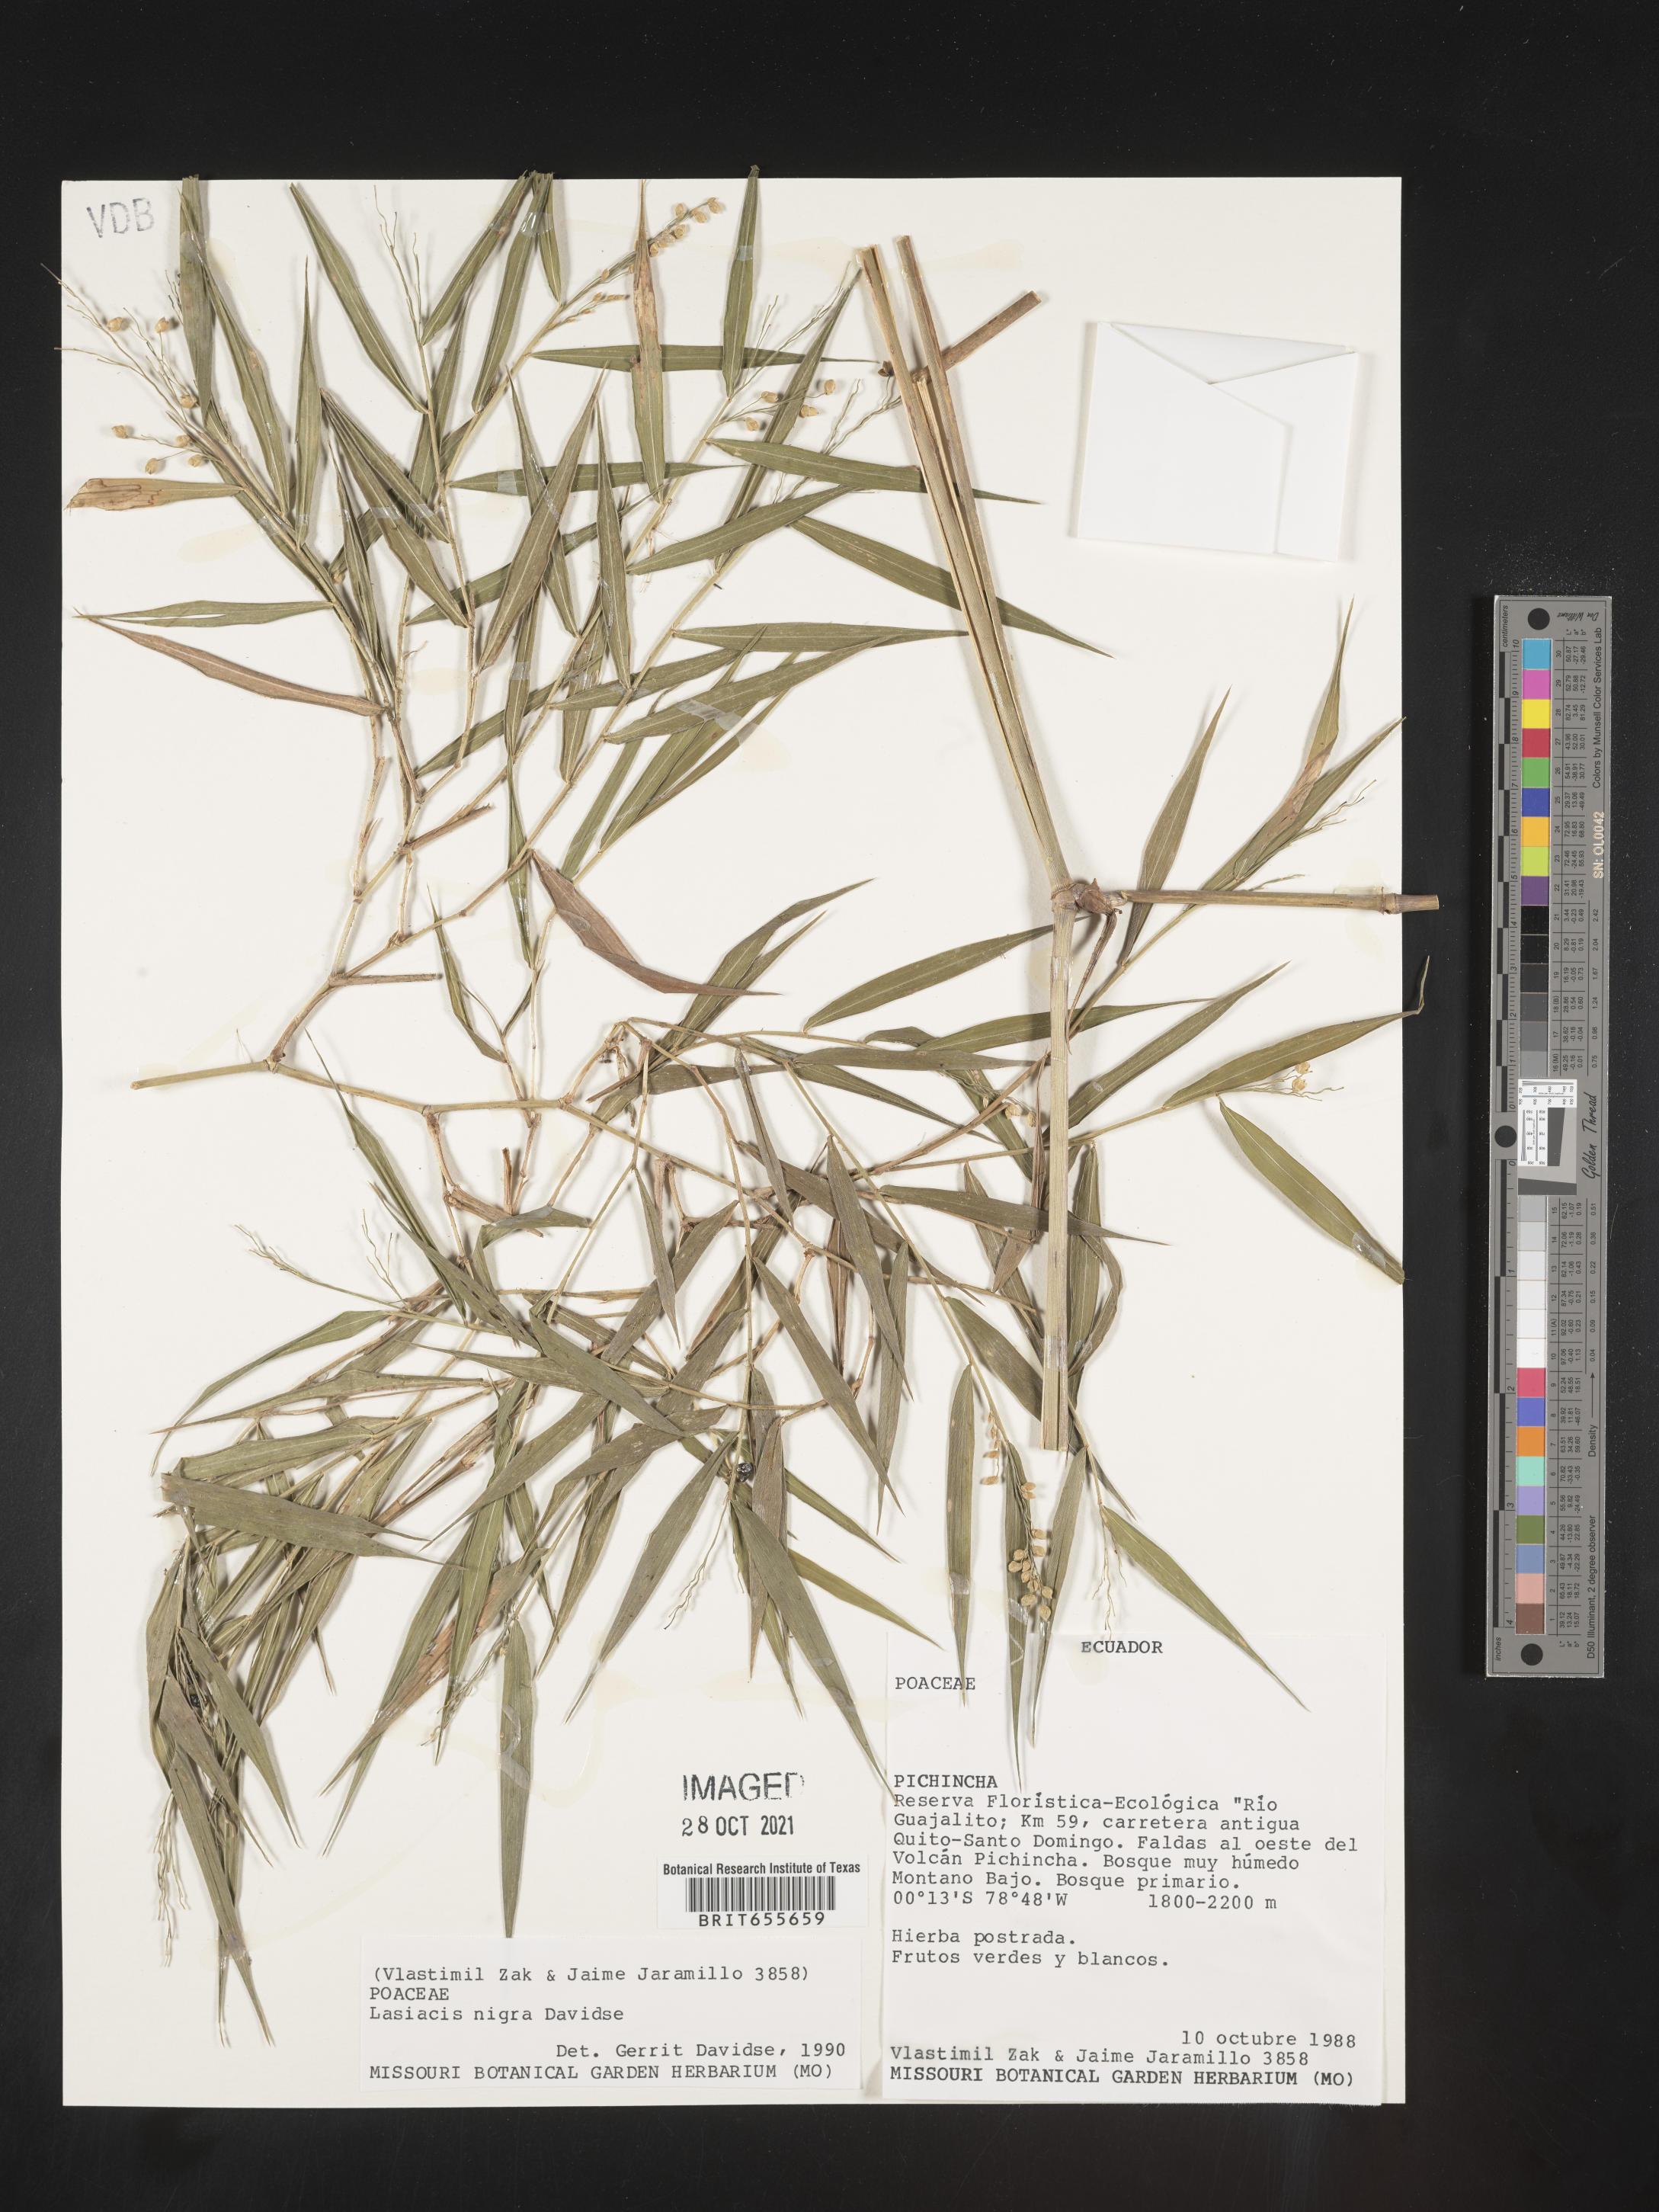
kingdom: Plantae
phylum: Tracheophyta
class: Liliopsida
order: Poales
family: Poaceae
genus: Lasiacis
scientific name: Lasiacis
